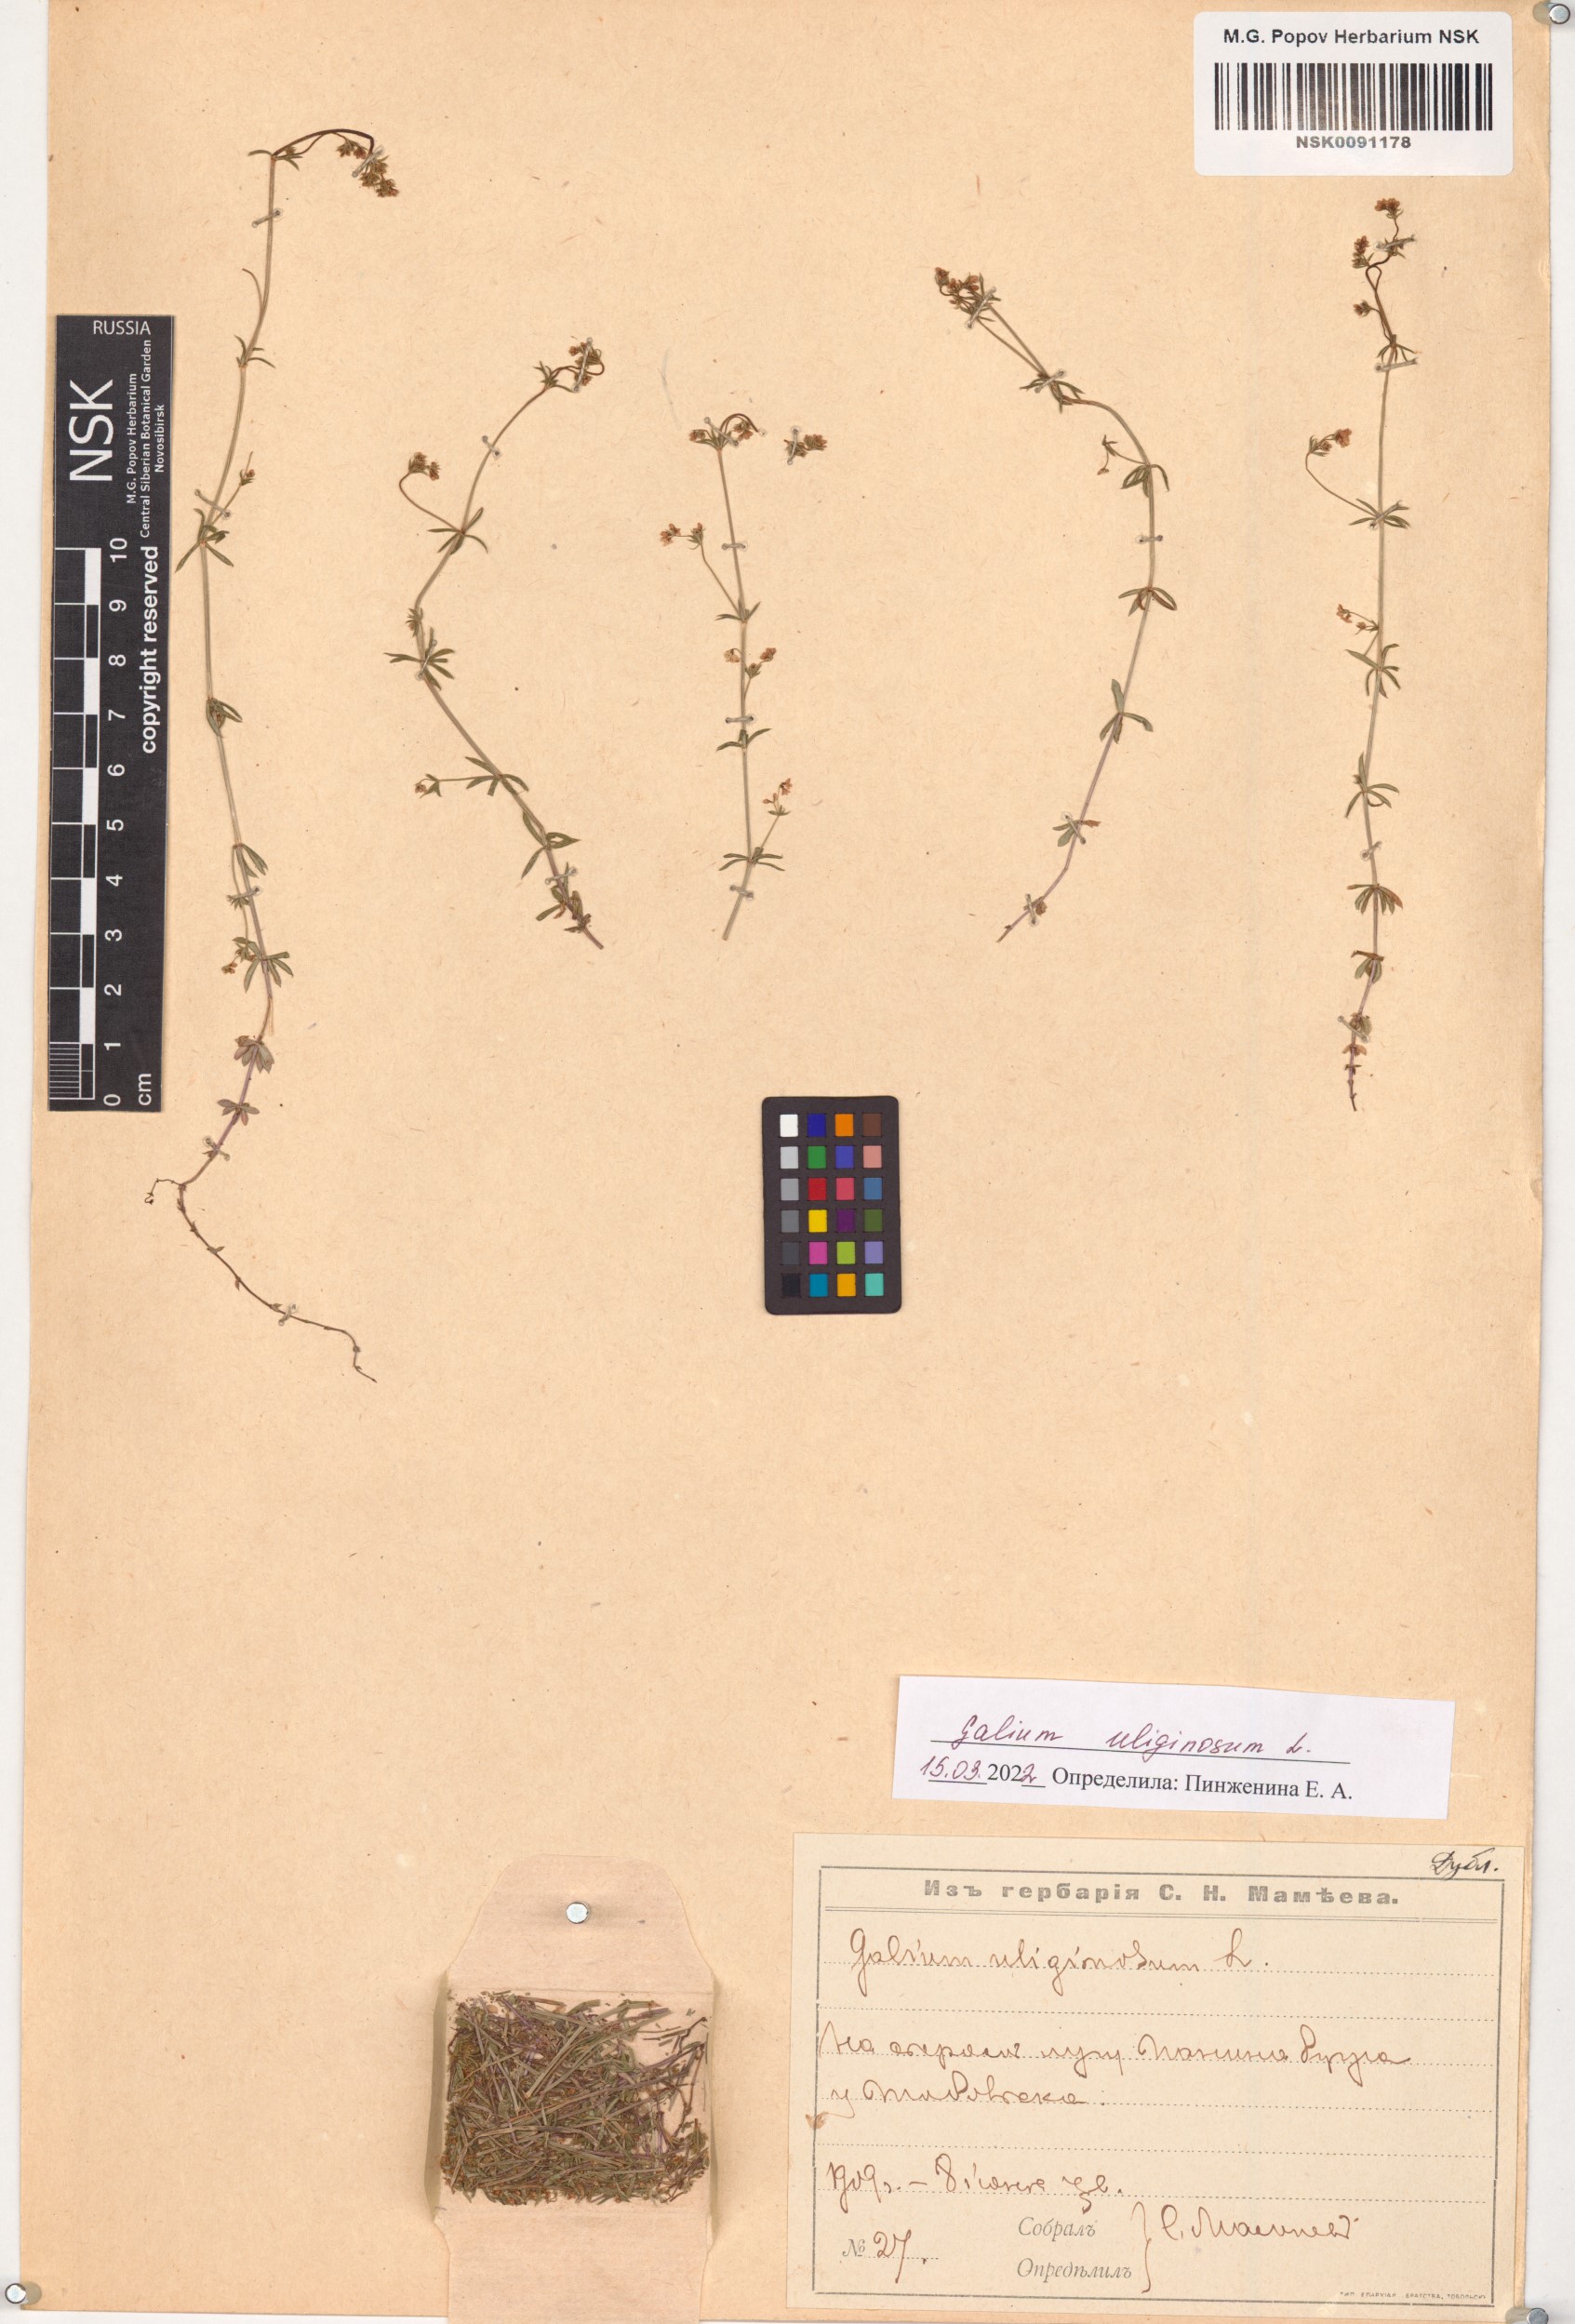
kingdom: Plantae
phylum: Tracheophyta
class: Magnoliopsida
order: Gentianales
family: Rubiaceae
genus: Galium
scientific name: Galium uliginosum
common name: Fen bedstraw
